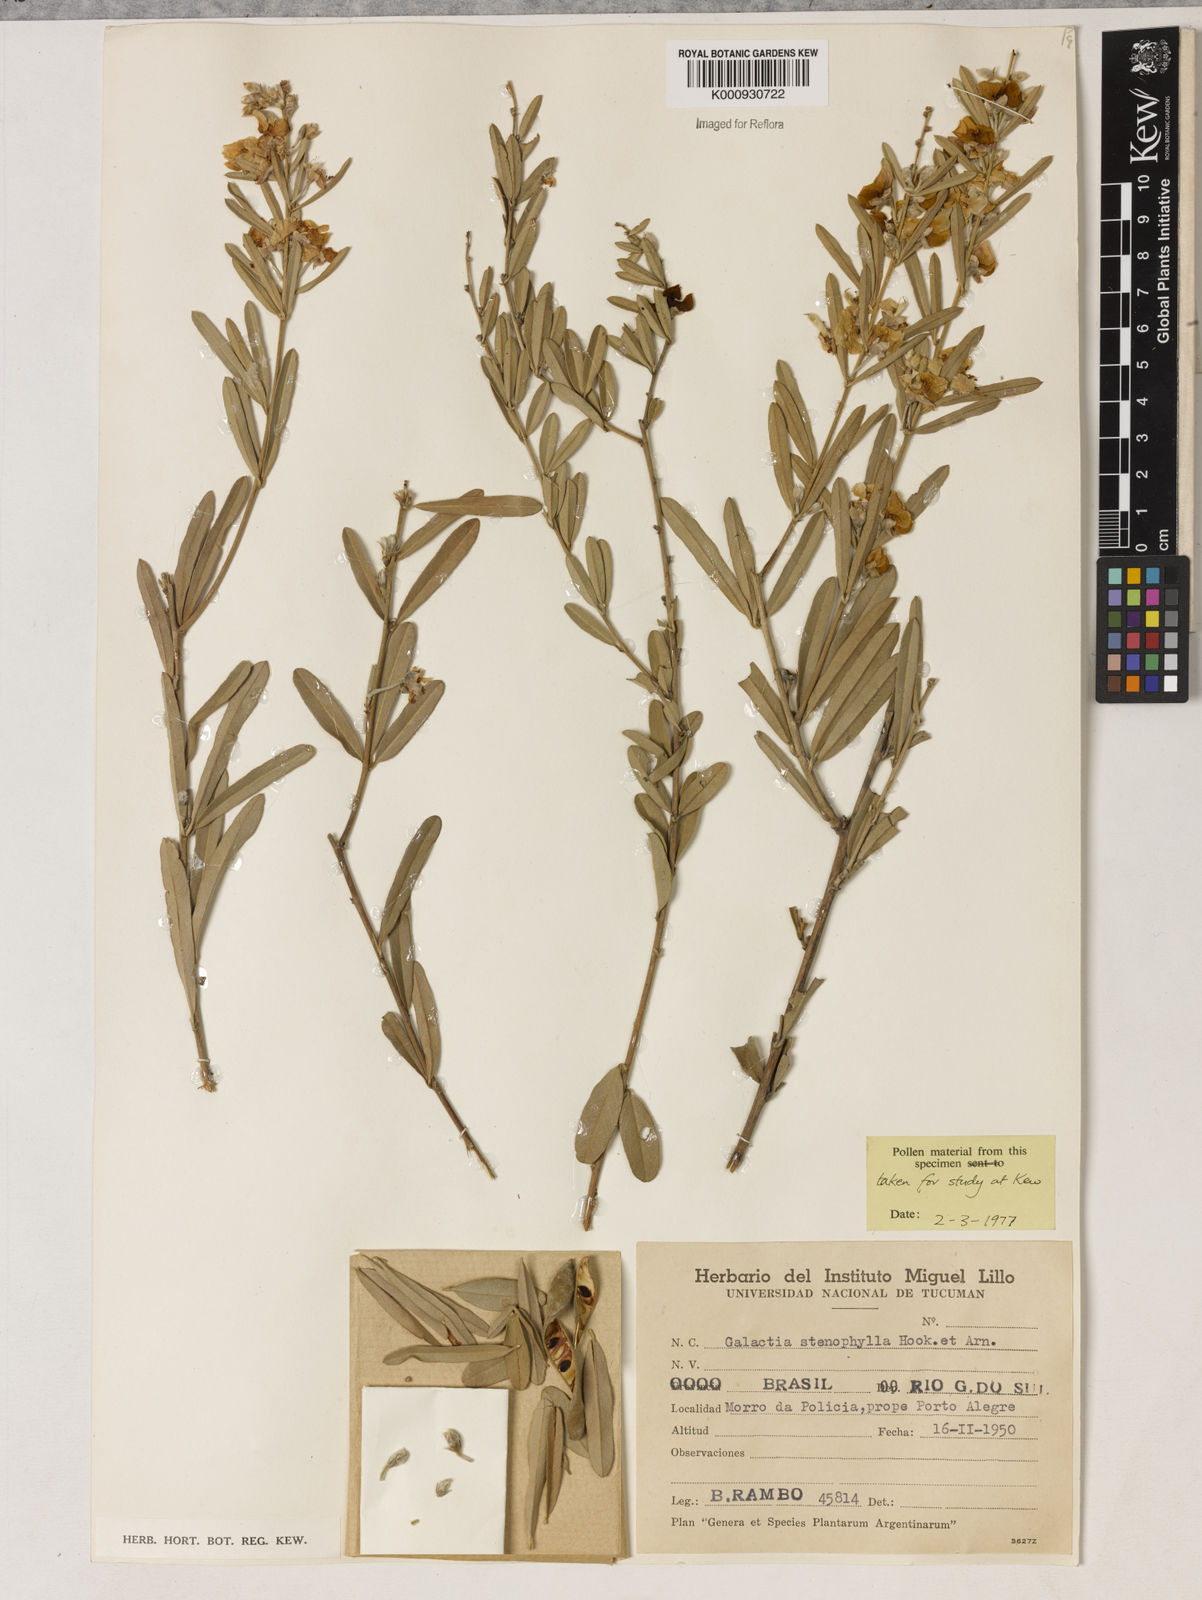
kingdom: Plantae
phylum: Tracheophyta
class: Liliopsida
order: Asparagales
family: Orchidaceae
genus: Pelexia
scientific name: Pelexia
